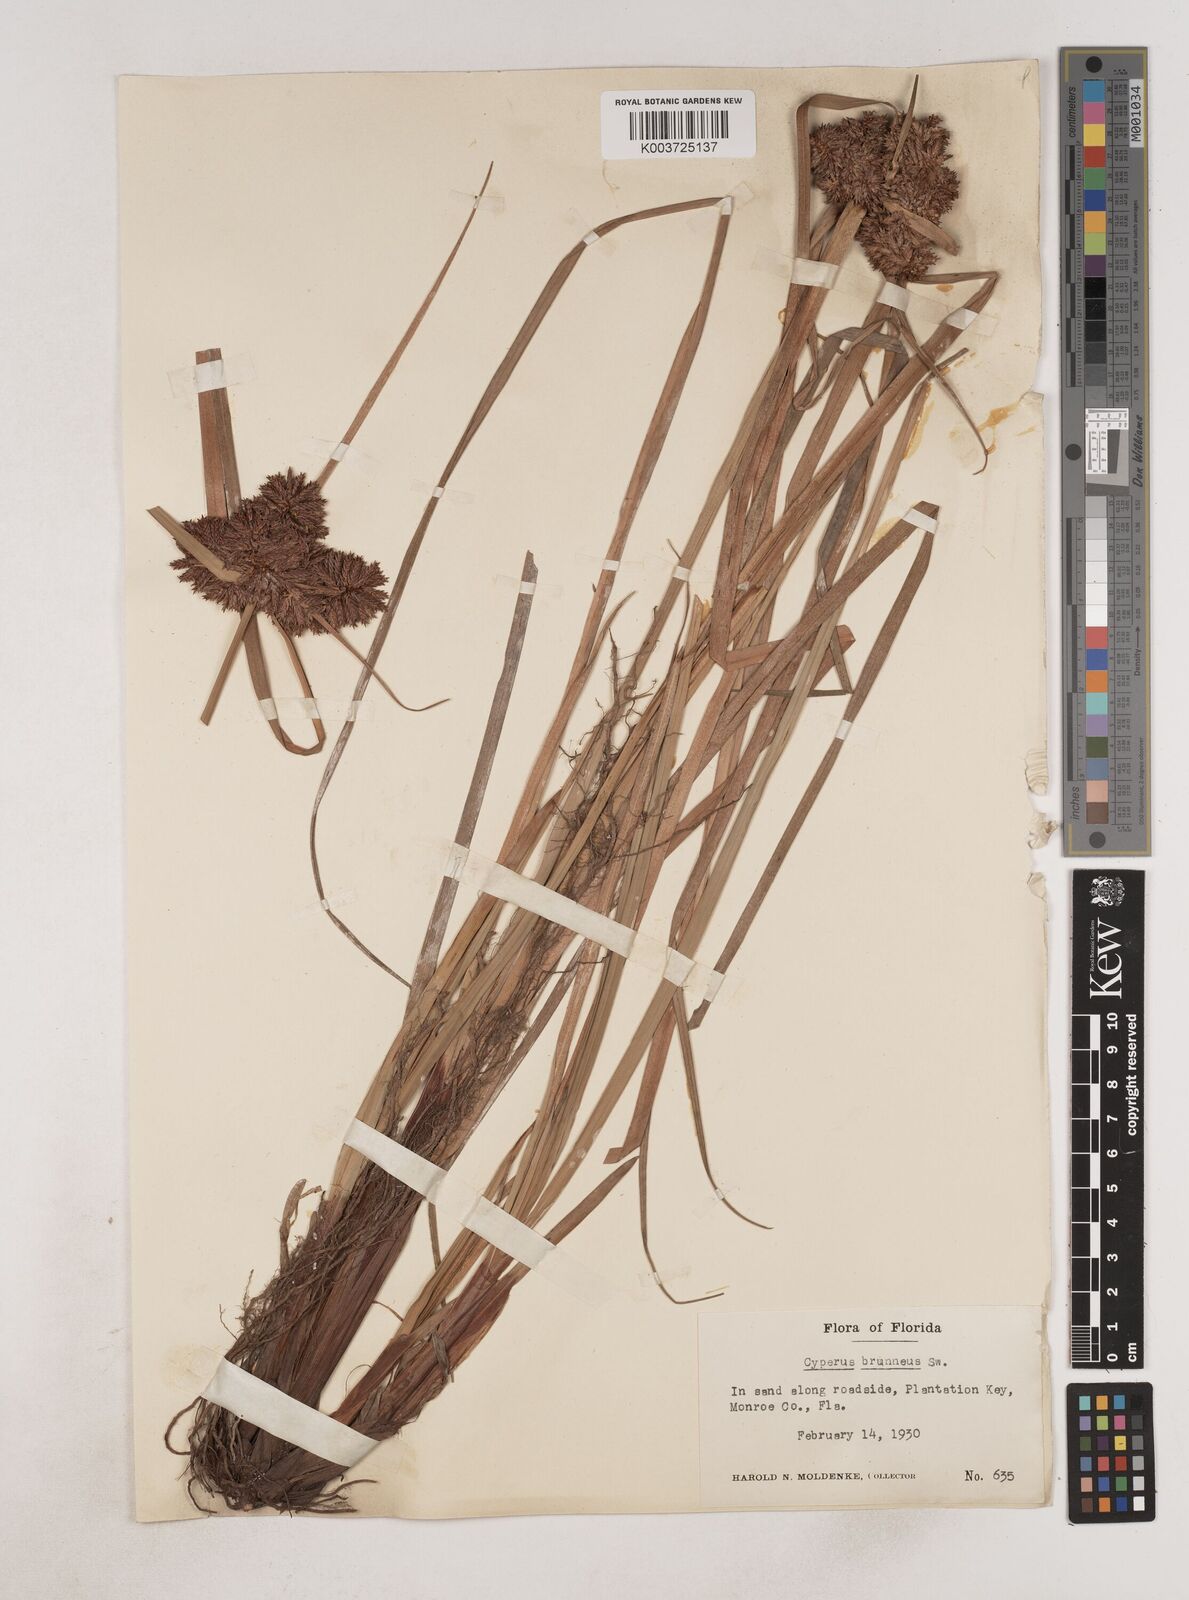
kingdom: Plantae
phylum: Tracheophyta
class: Liliopsida
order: Poales
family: Cyperaceae
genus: Cyperus
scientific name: Cyperus brunneus
